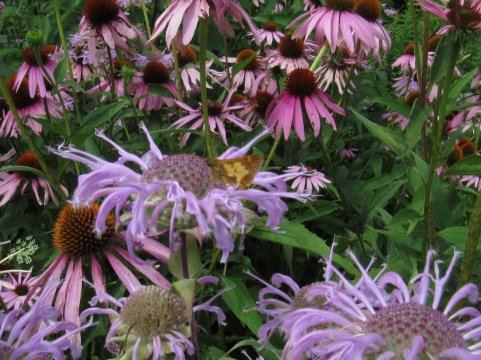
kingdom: Animalia
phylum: Arthropoda
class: Insecta
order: Lepidoptera
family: Hesperiidae
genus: Polites
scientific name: Polites coras
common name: Peck's Skipper
